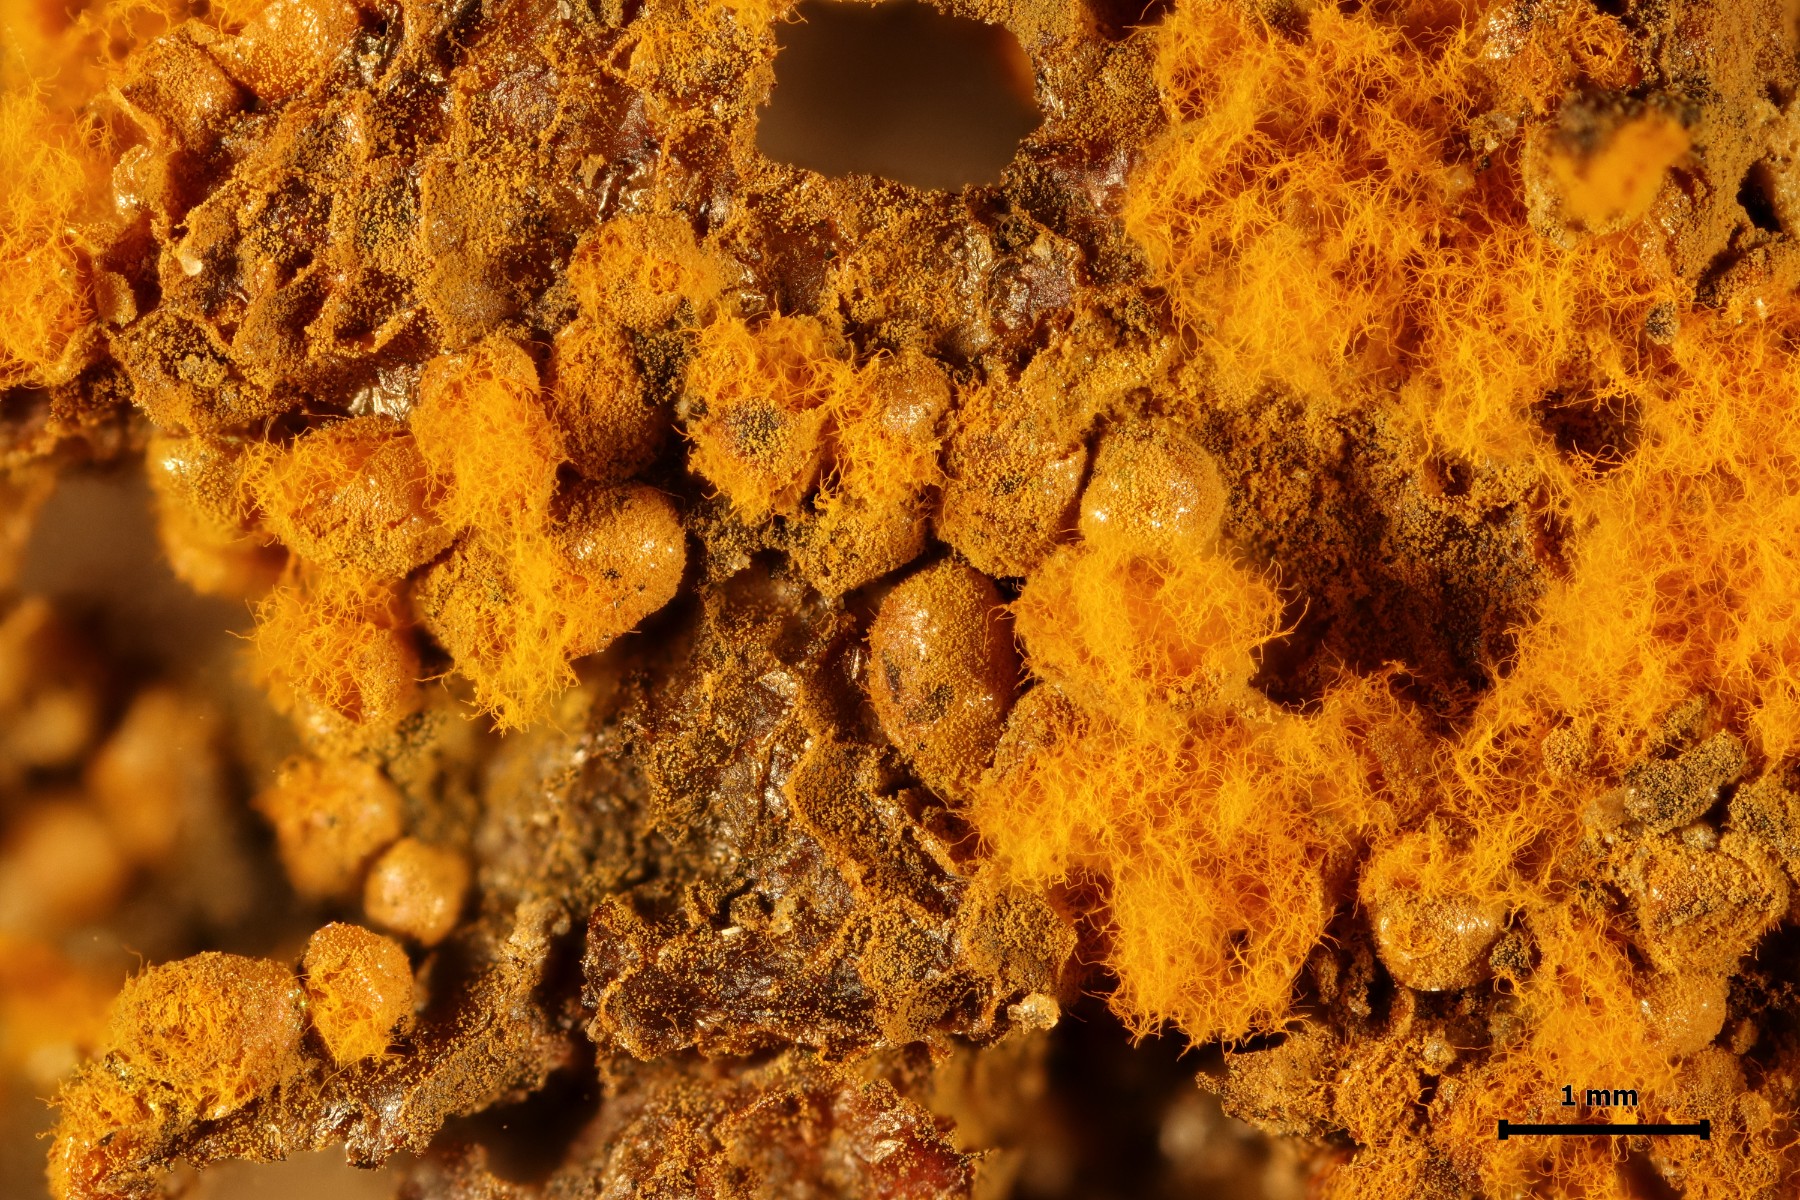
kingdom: Protozoa
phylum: Mycetozoa
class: Myxomycetes
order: Trichiales
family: Trichiaceae
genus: Trichia
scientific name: Trichia scabra
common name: tæppe-hårbold
